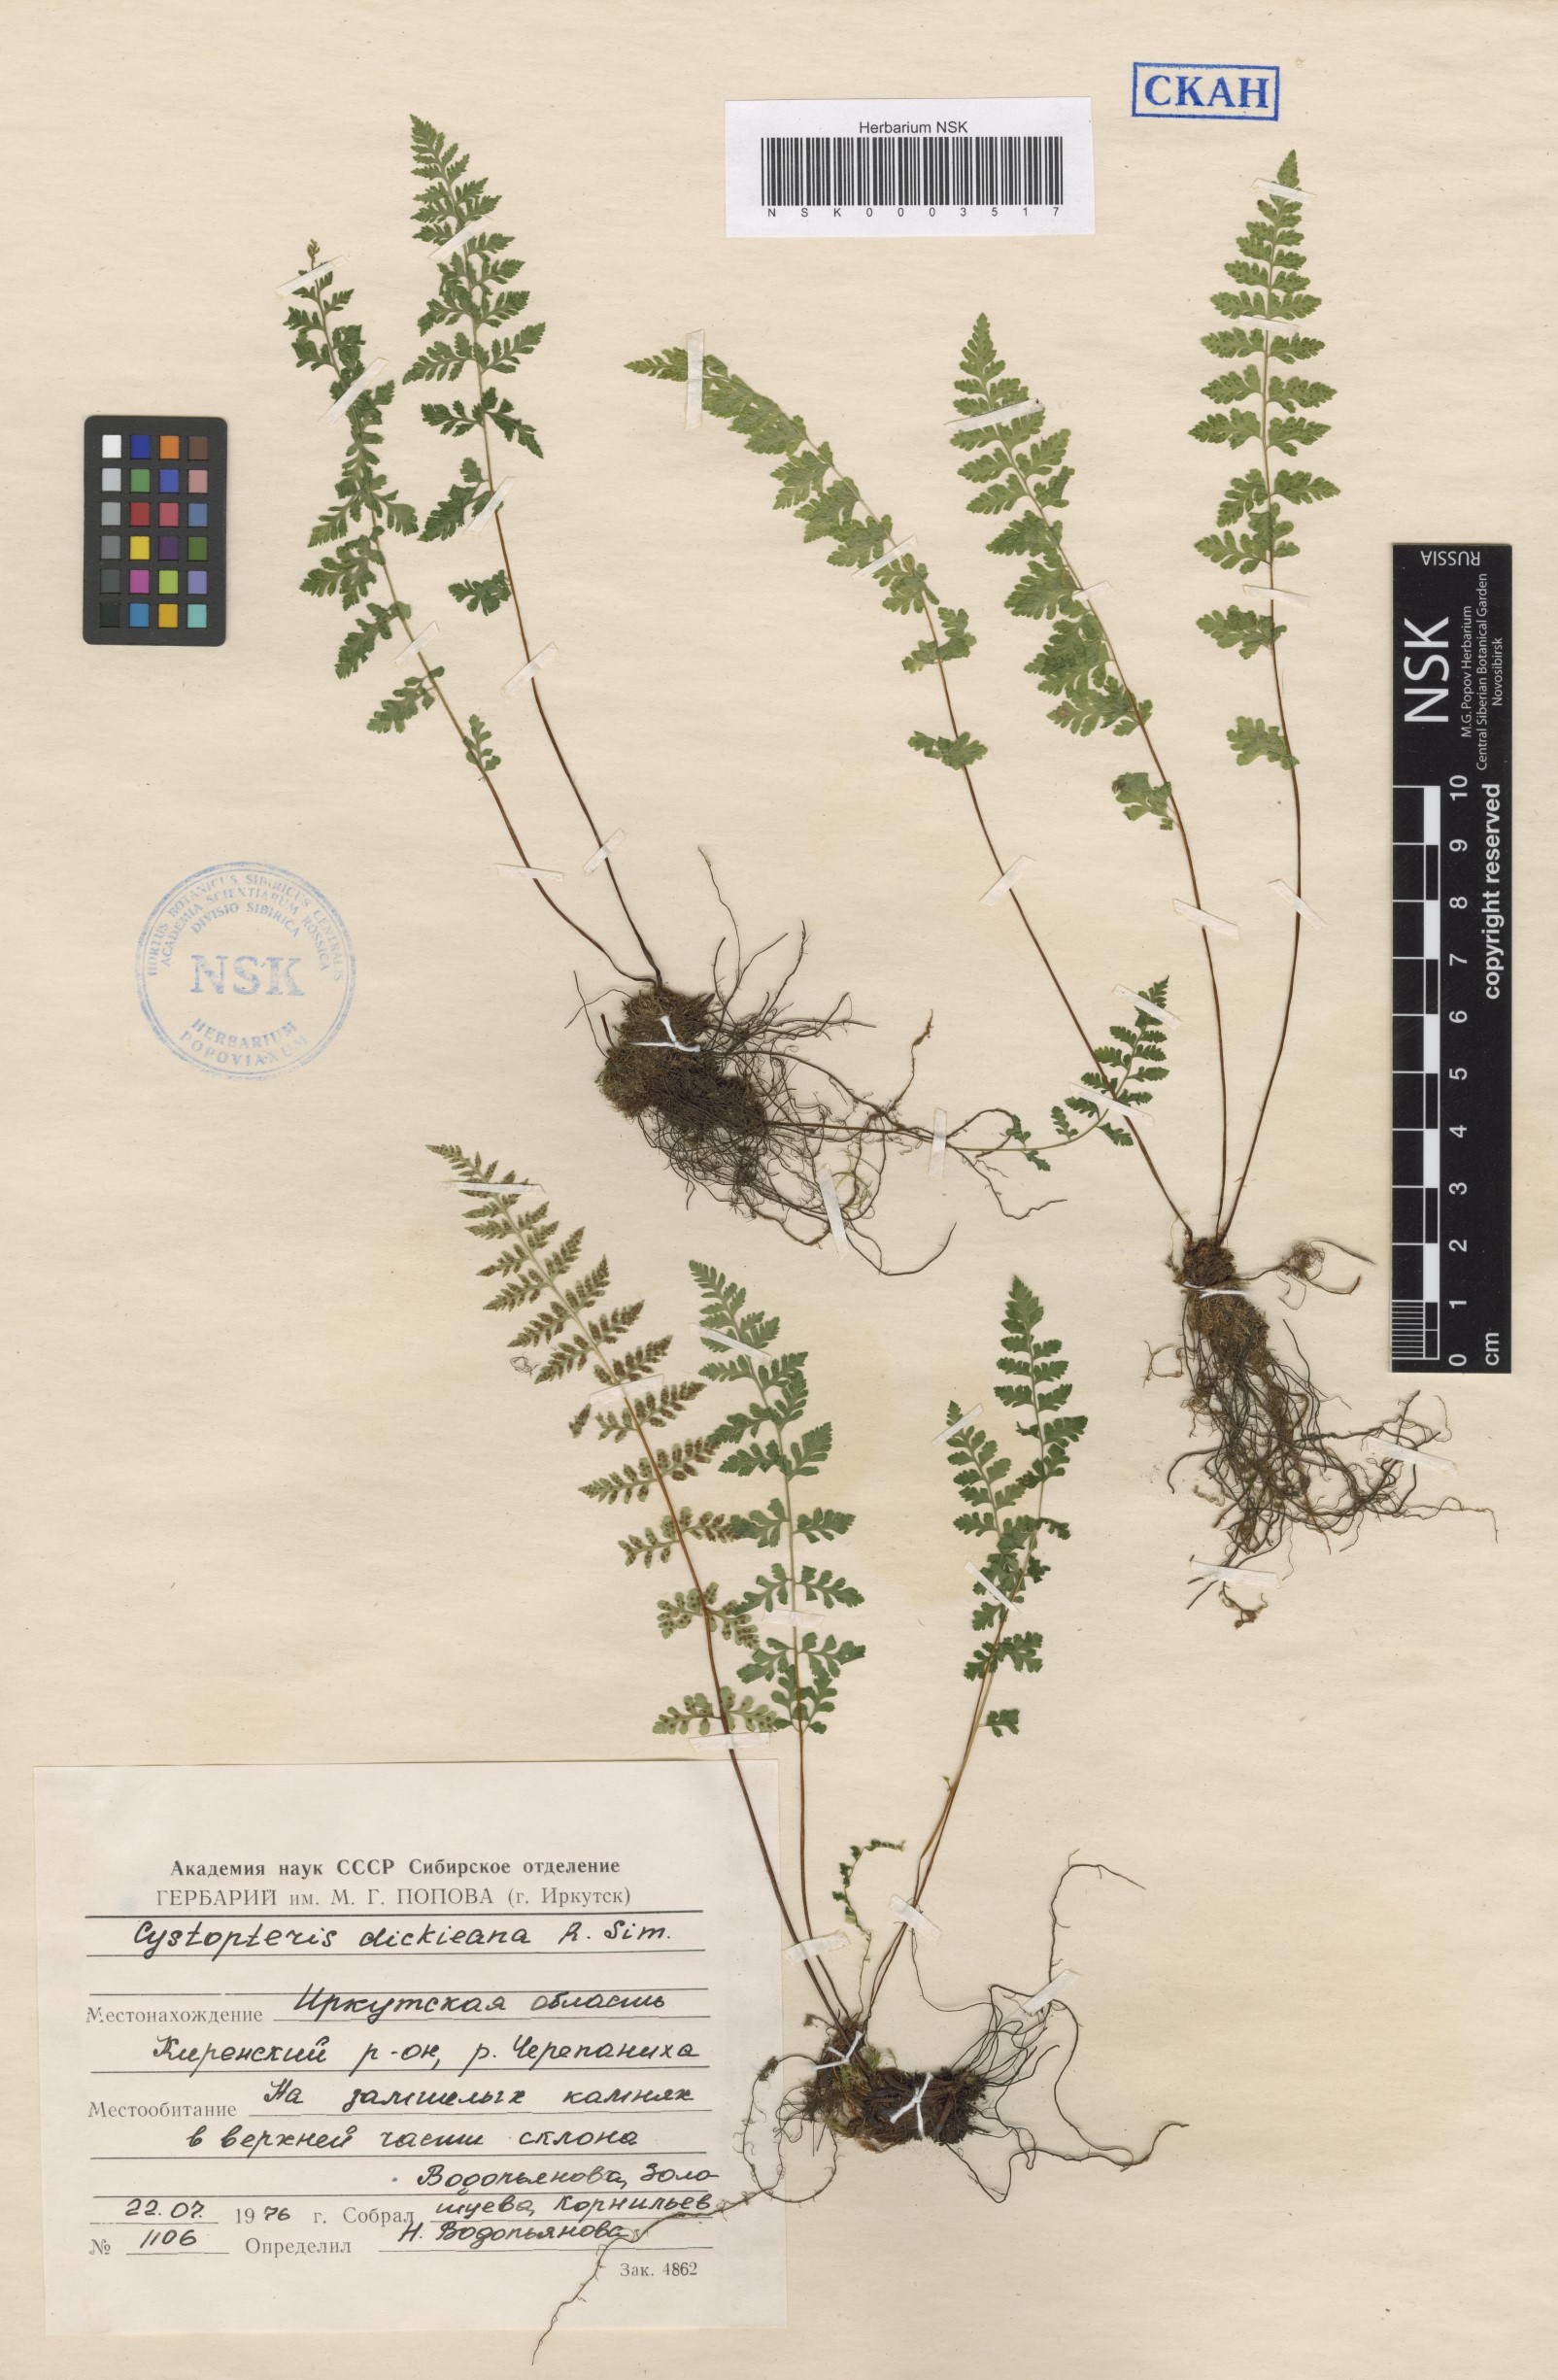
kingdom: Plantae
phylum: Tracheophyta
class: Polypodiopsida
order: Polypodiales
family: Cystopteridaceae
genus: Cystopteris
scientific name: Cystopteris dickieana
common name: Dickie's bladder-fern
